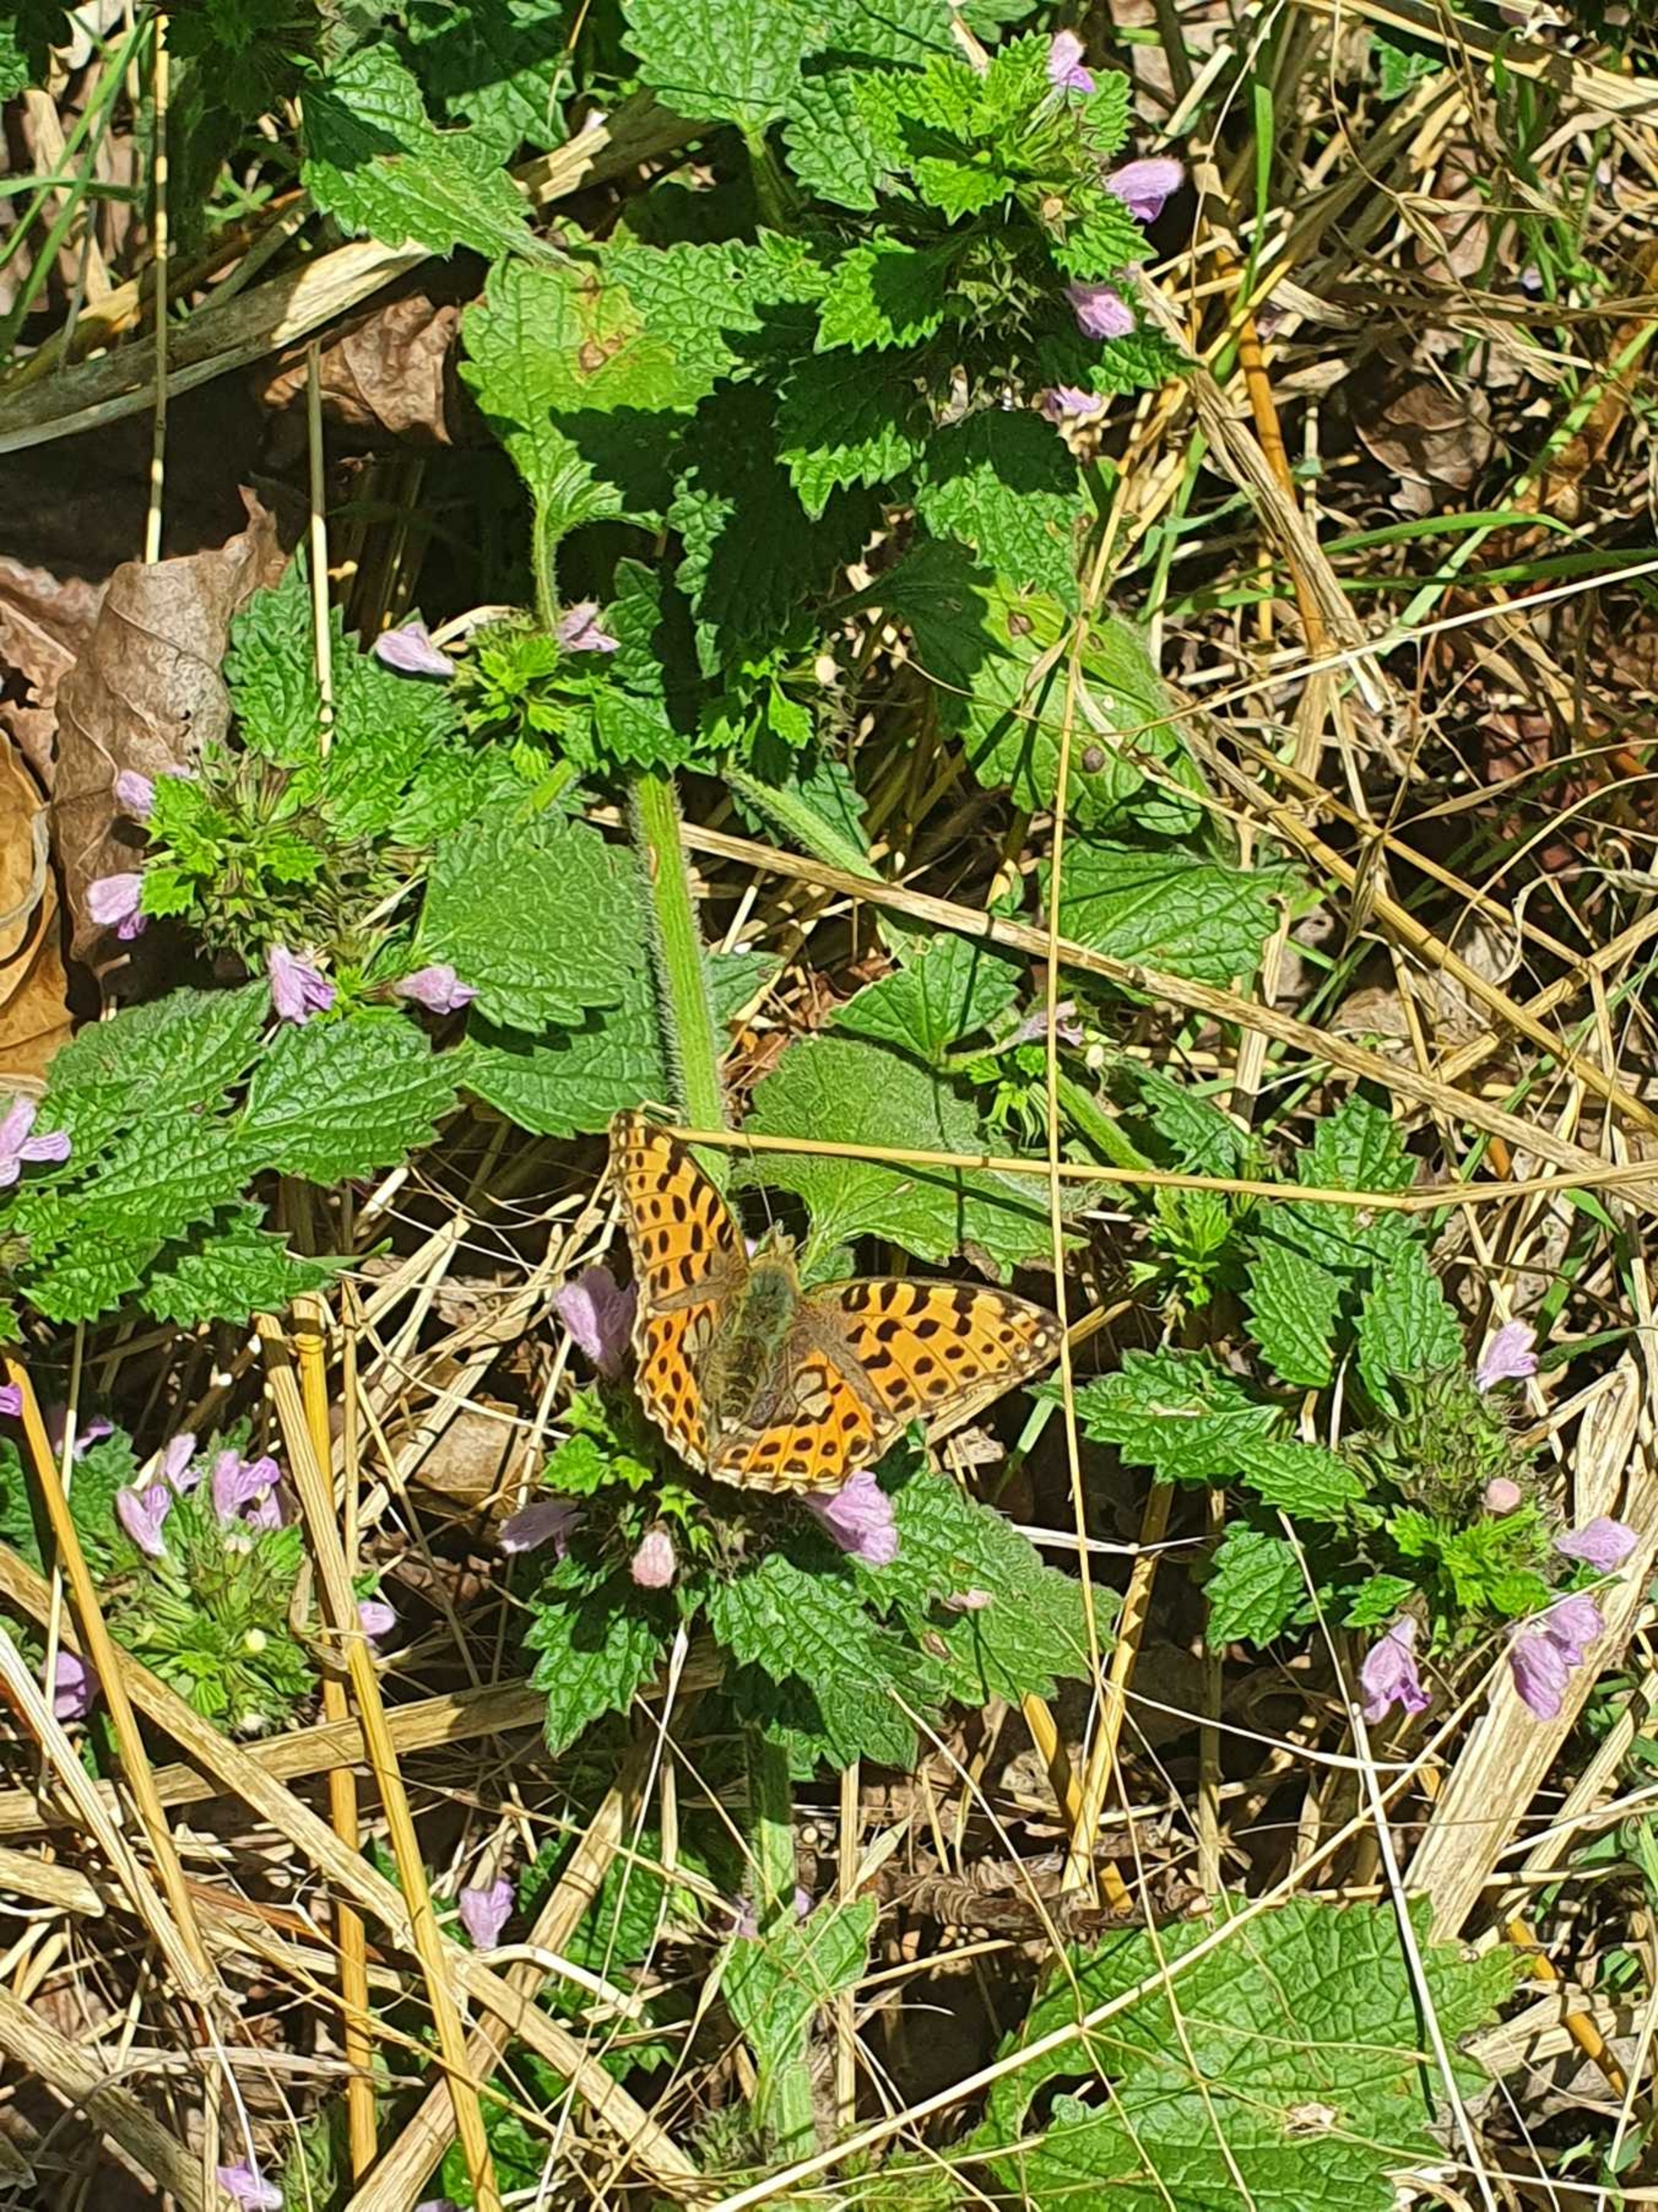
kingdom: Animalia
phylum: Arthropoda
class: Insecta
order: Lepidoptera
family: Nymphalidae
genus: Issoria
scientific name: Issoria lathonia
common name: Storplettet perlemorsommerfugl
